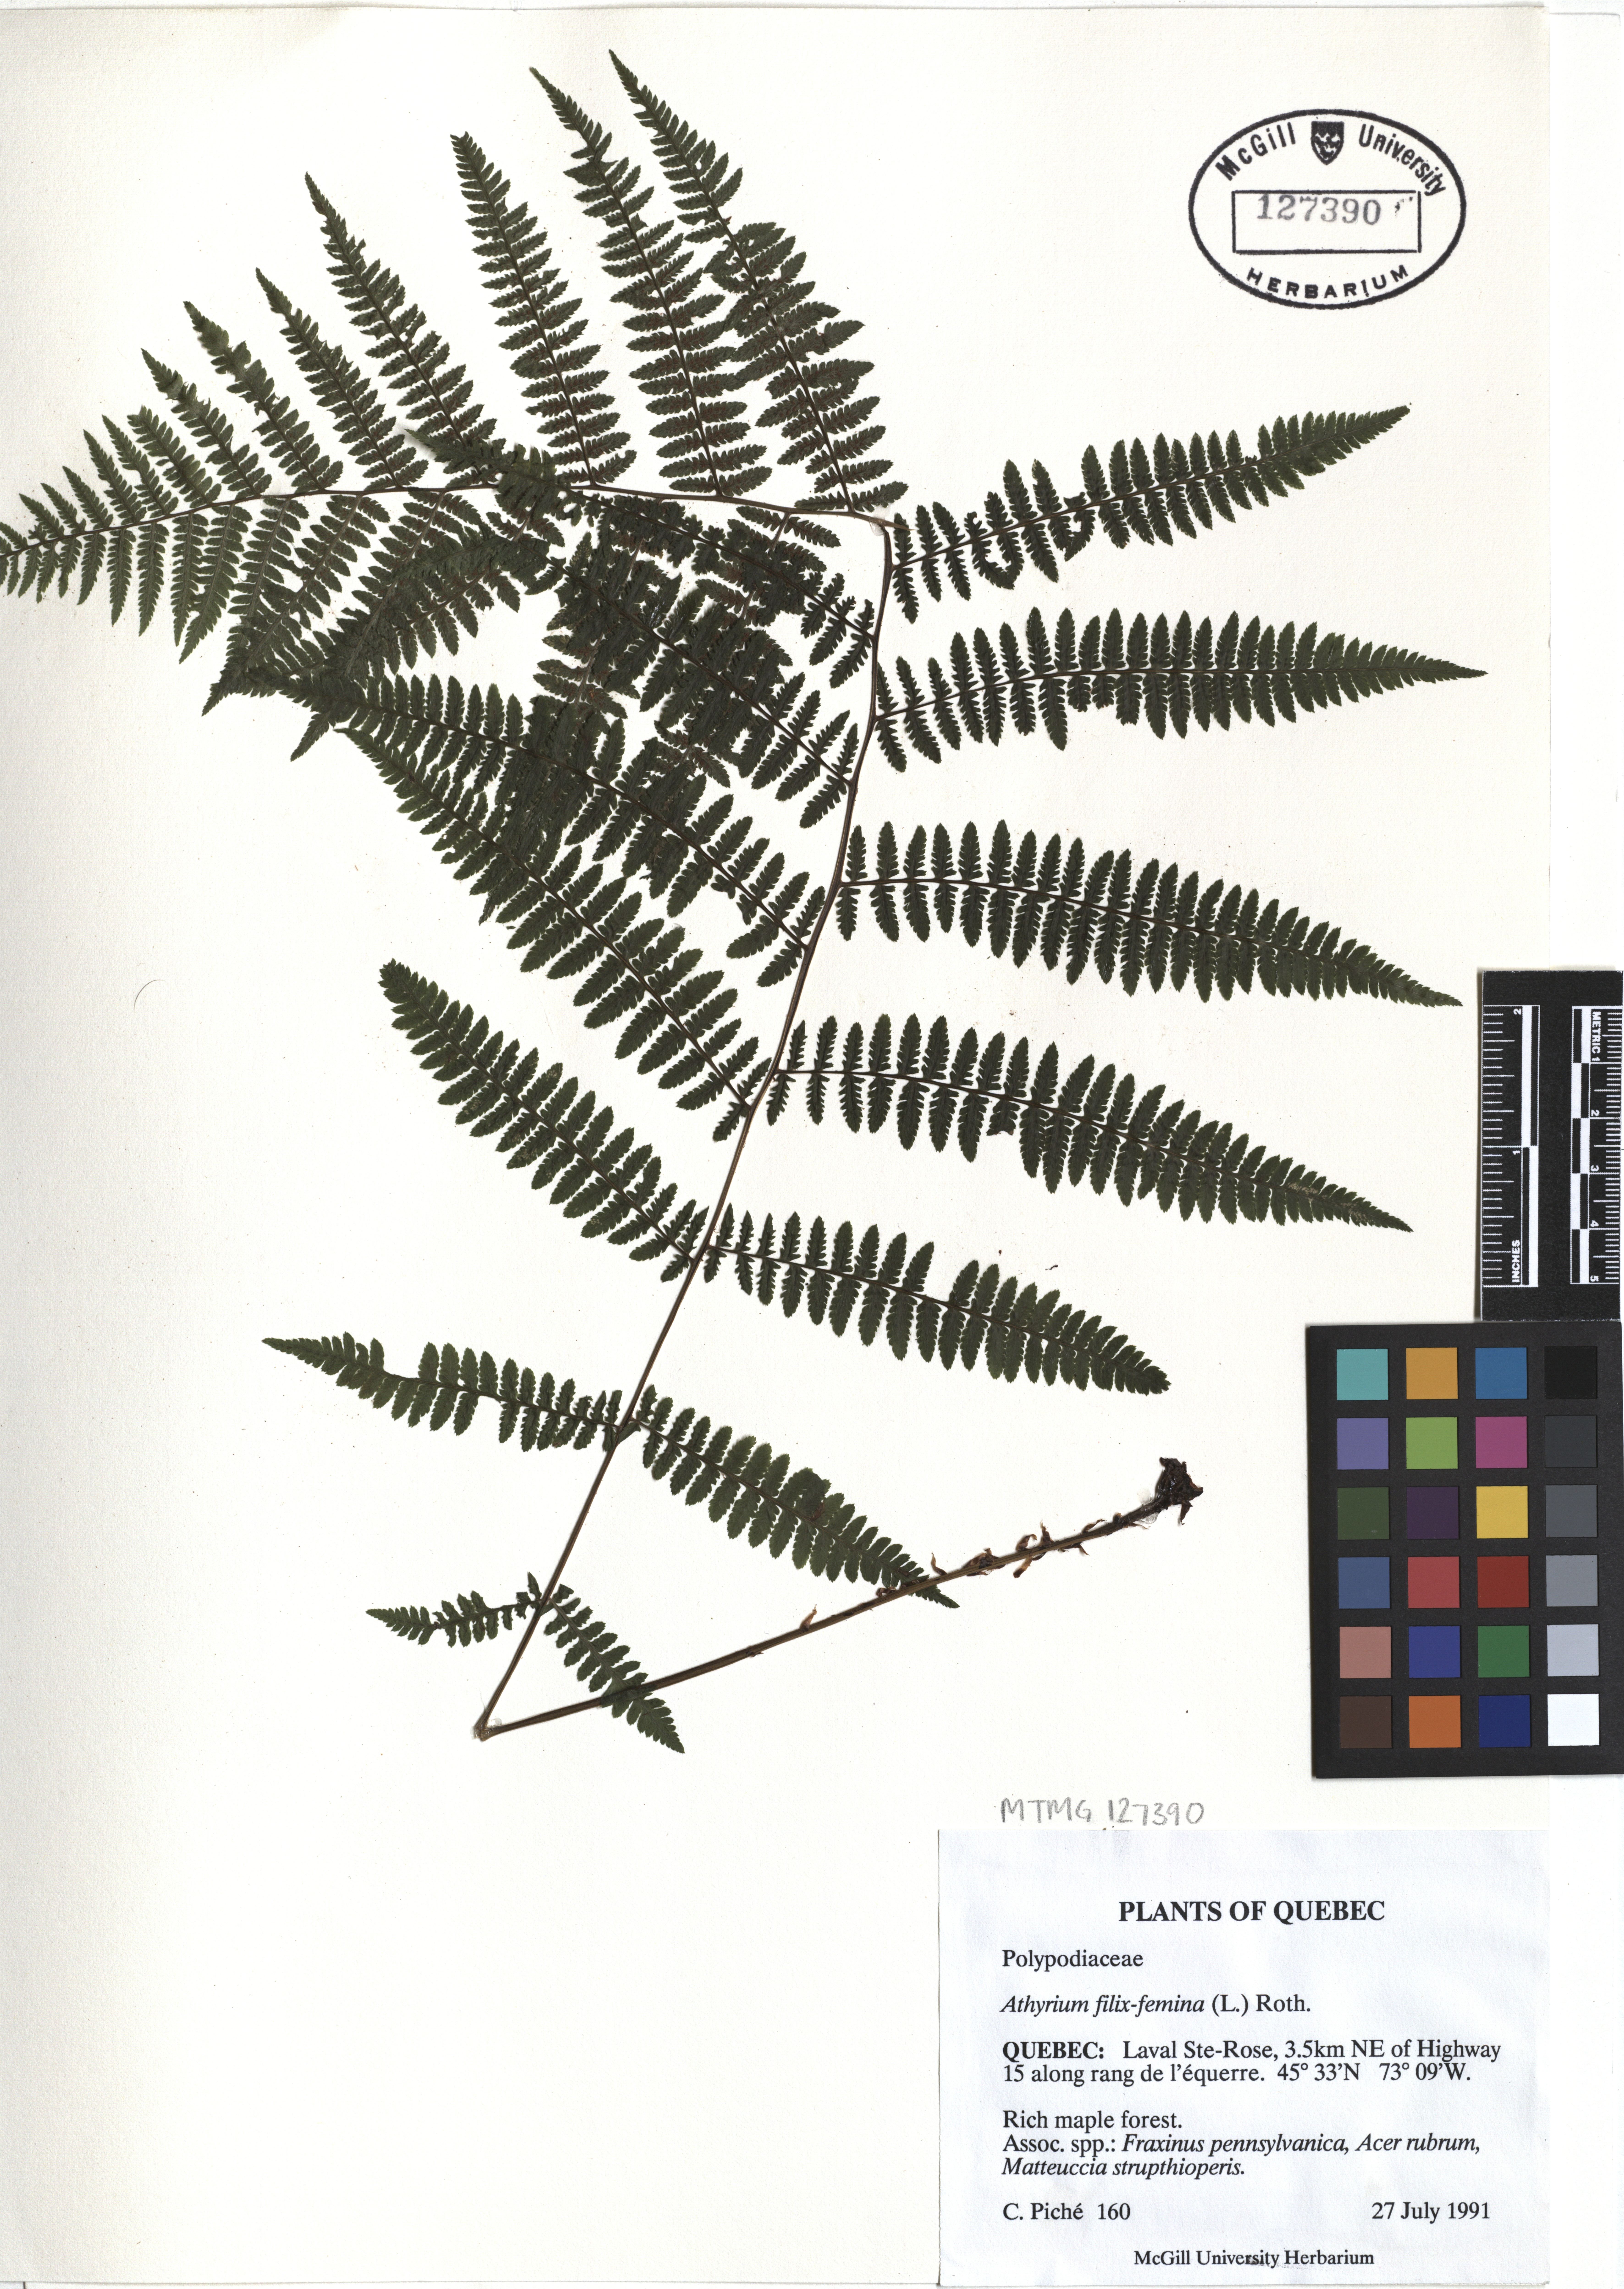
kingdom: Plantae
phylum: Tracheophyta
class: Polypodiopsida
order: Polypodiales
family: Athyriaceae
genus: Athyrium
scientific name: Athyrium filix-femina
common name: Lady fern
